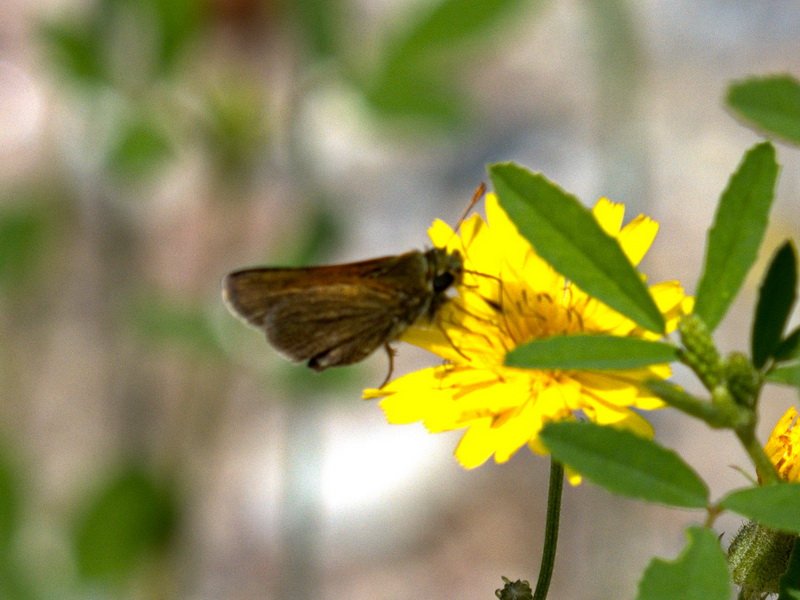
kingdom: Animalia
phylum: Arthropoda
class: Insecta
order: Lepidoptera
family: Hesperiidae
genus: Polites
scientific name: Polites themistocles
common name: Tawny-edged Skipper
